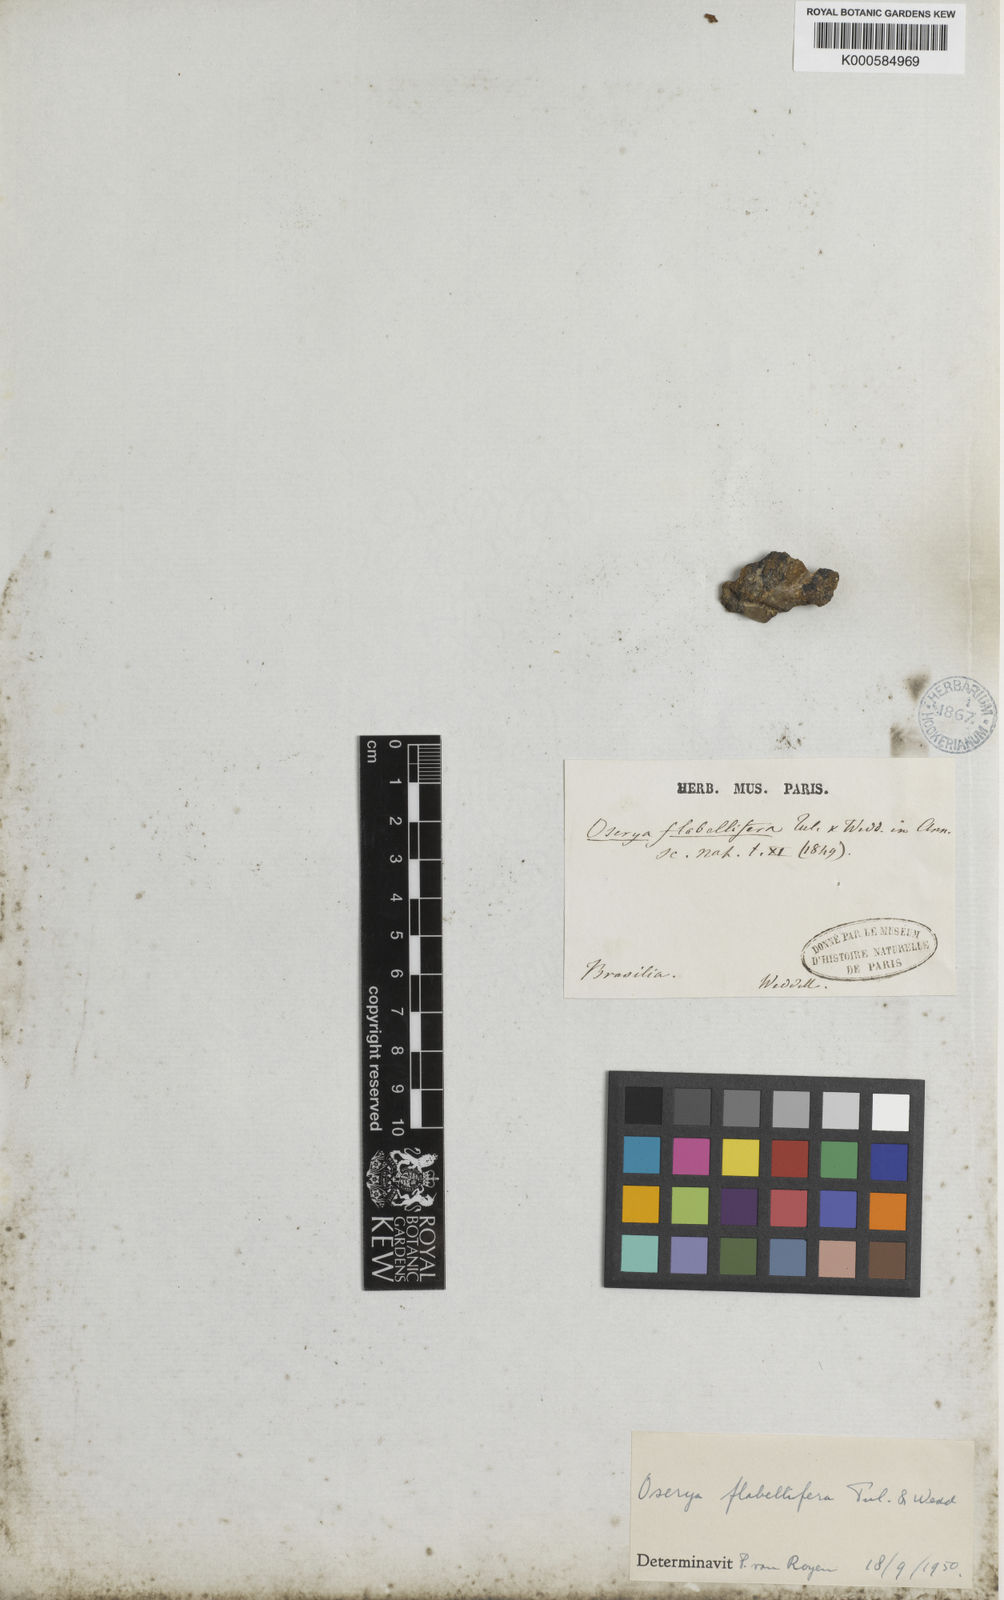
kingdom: Plantae
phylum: Tracheophyta
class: Magnoliopsida
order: Malpighiales
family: Podostemaceae
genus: Castelnavia
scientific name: Castelnavia monandra
